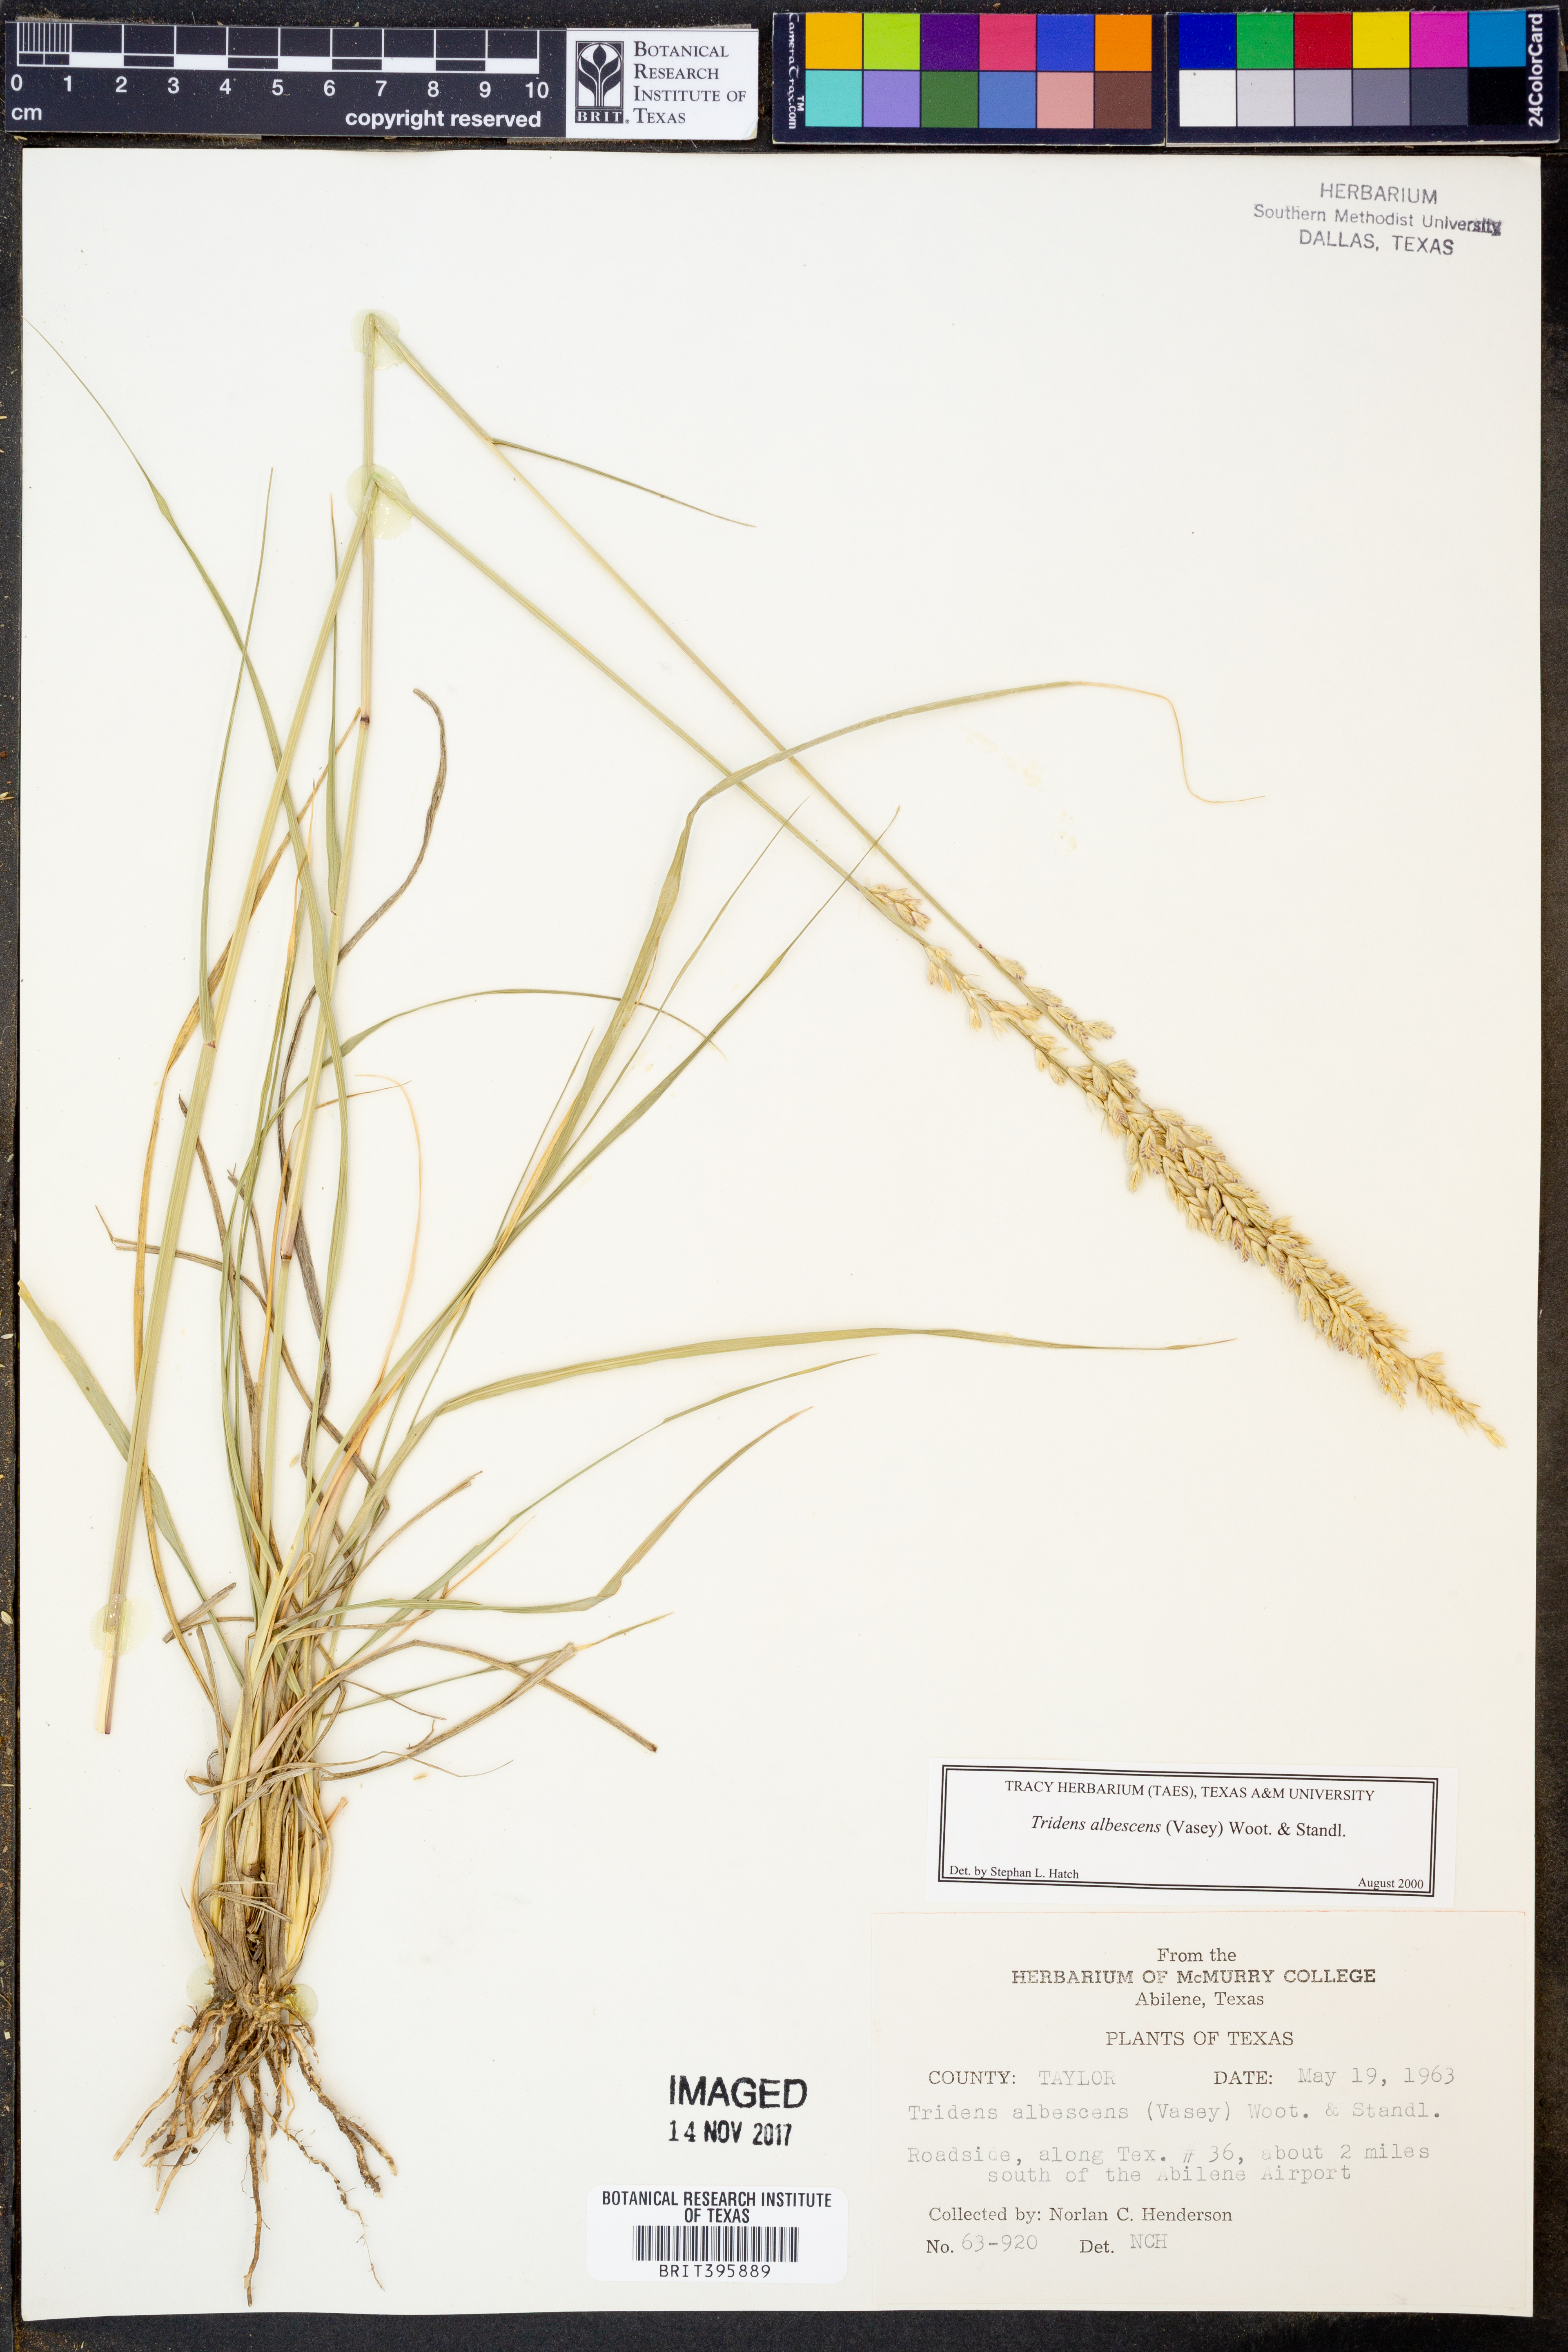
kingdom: Plantae
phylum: Tracheophyta
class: Liliopsida
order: Poales
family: Poaceae
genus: Tridens
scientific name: Tridens albescens
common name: White tridens
